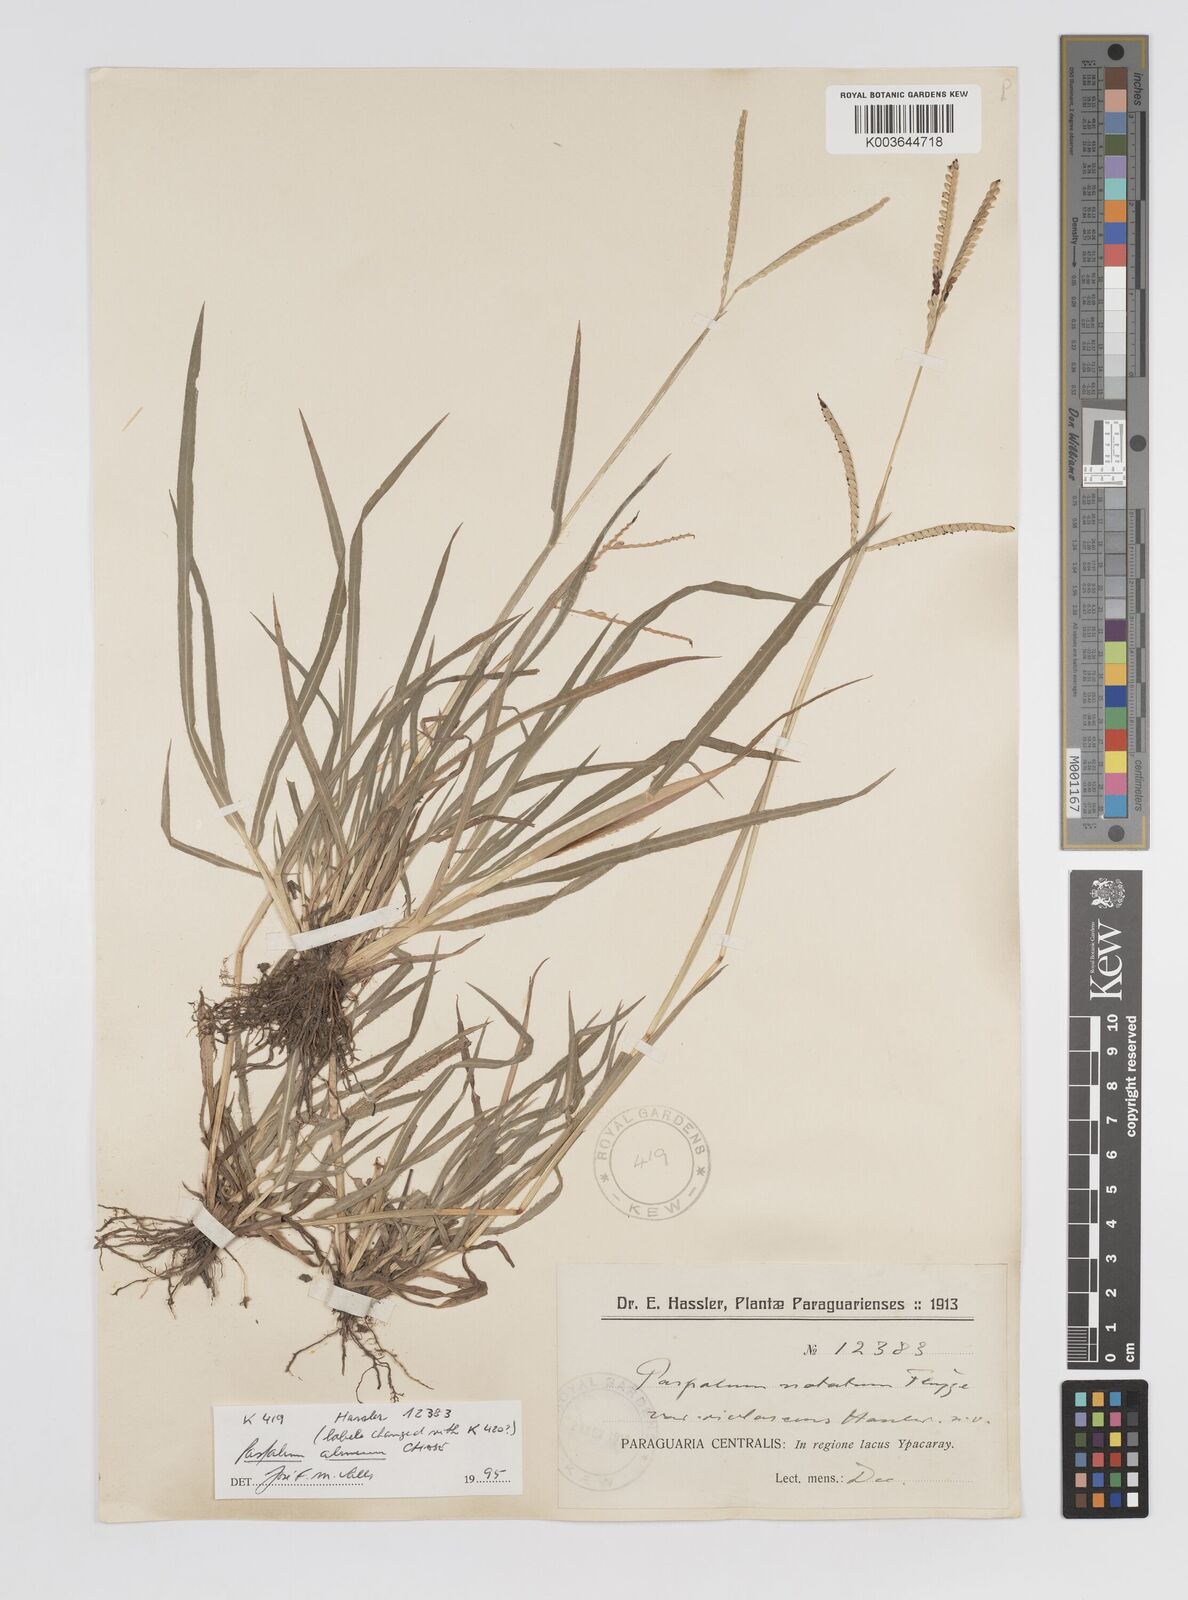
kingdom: Plantae
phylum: Tracheophyta
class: Liliopsida
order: Poales
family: Poaceae
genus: Paspalum
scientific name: Paspalum almum
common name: Comb's crowngrass
